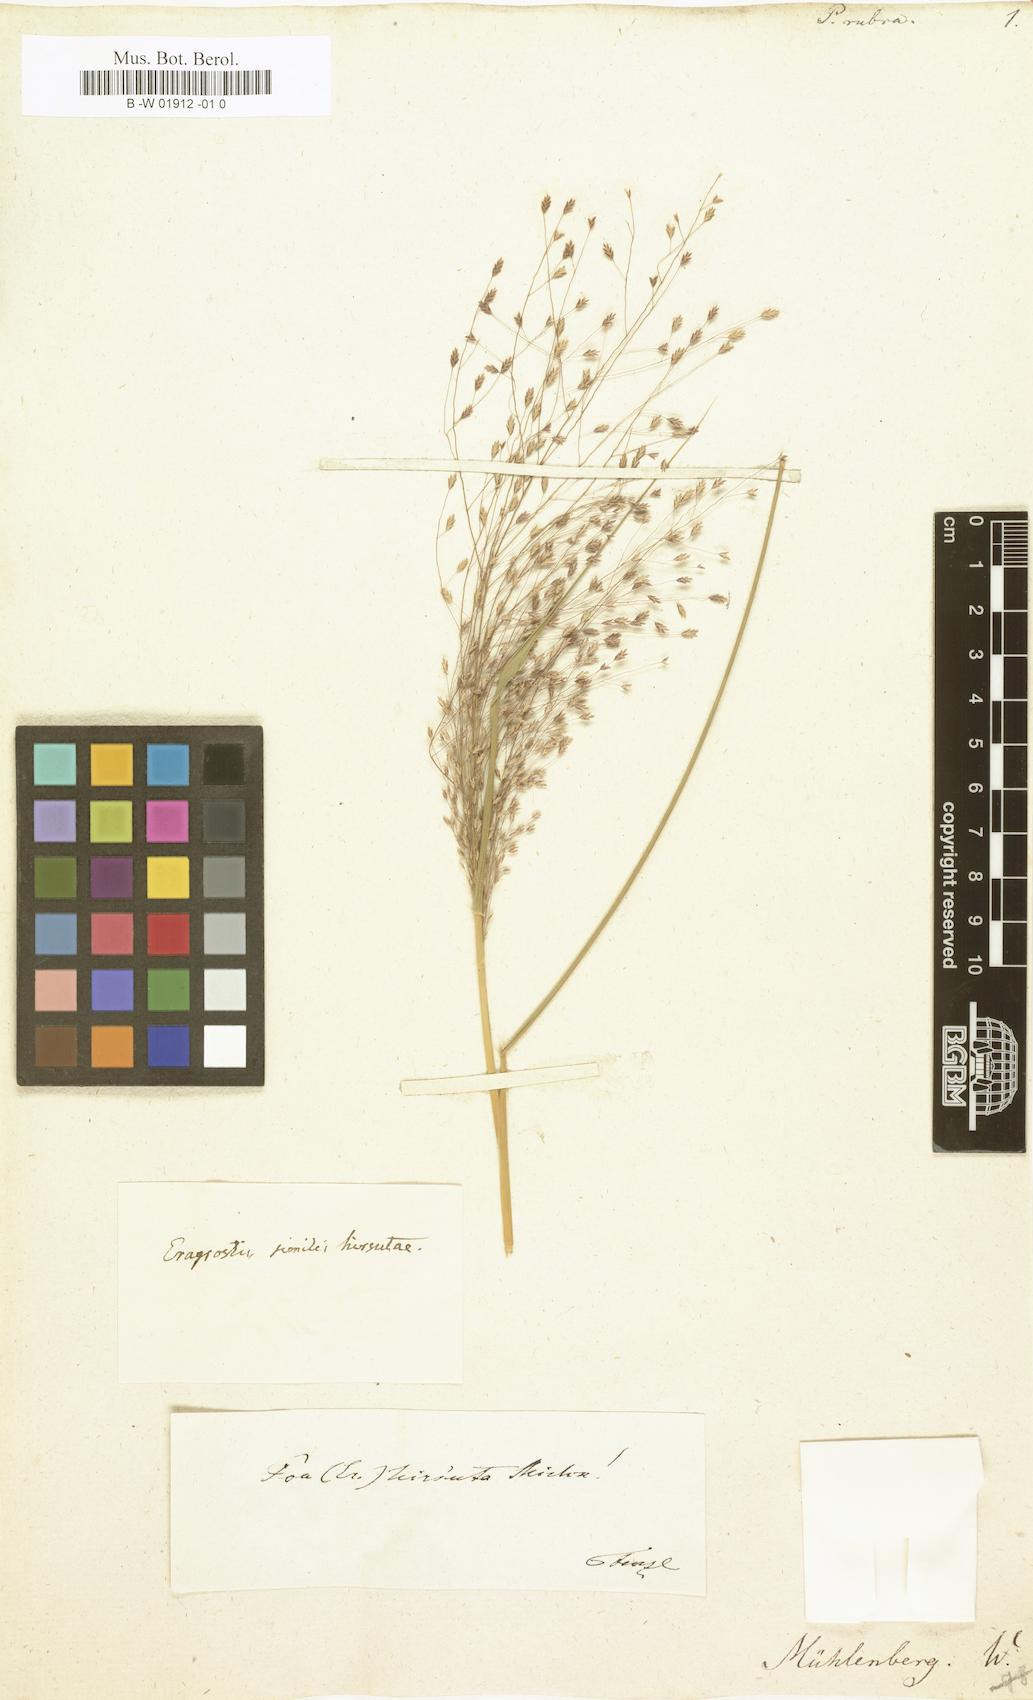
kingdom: Plantae
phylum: Tracheophyta
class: Liliopsida
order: Poales
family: Poaceae
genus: Eragrostis
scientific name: Eragrostis capillaris
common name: Hair-like lovegrass
